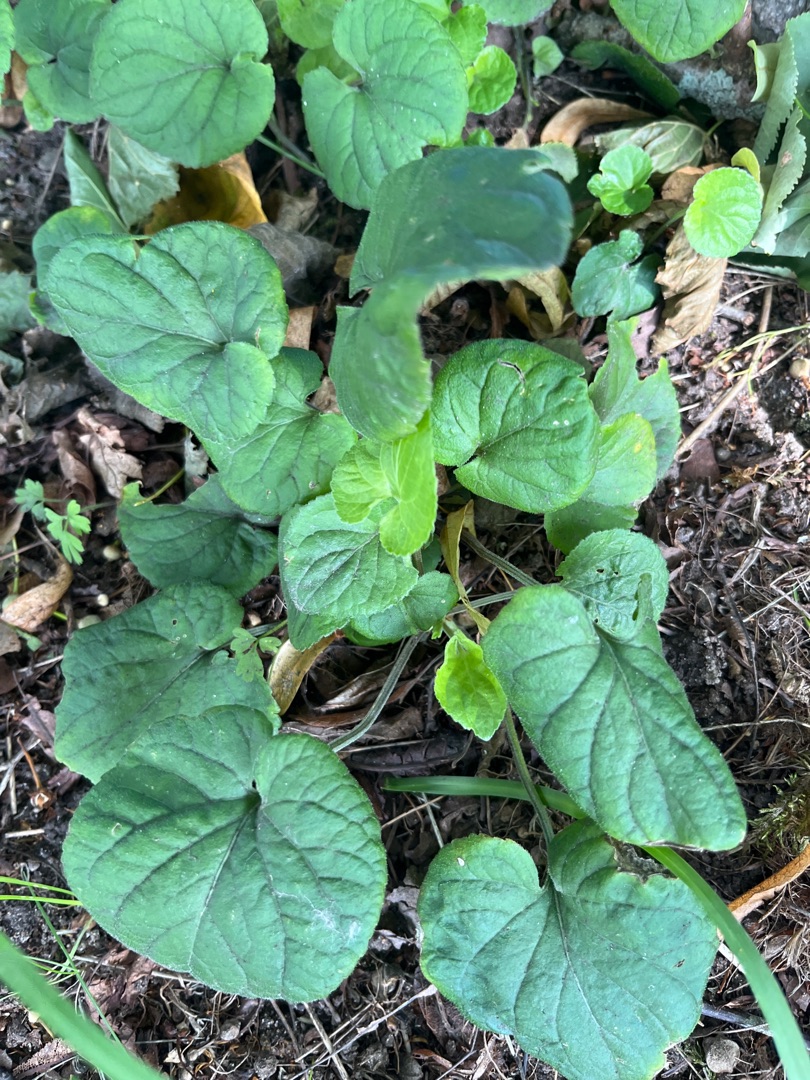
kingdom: Plantae
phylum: Tracheophyta
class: Magnoliopsida
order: Malpighiales
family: Violaceae
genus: Viola
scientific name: Viola odorata
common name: Marts-viol
